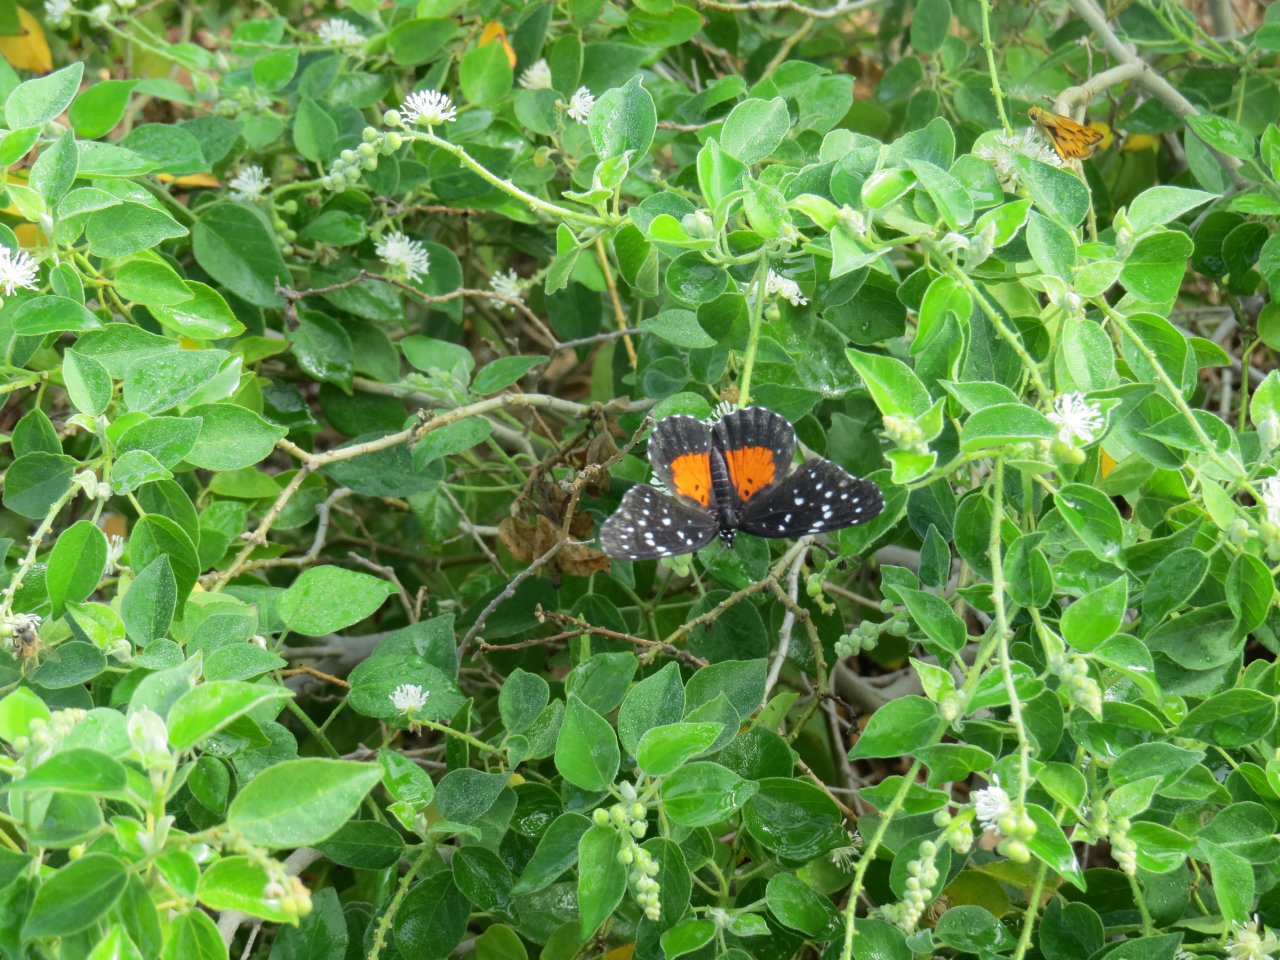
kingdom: Animalia
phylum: Arthropoda
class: Insecta
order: Lepidoptera
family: Nymphalidae
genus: Chlosyne
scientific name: Chlosyne janais
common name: Crimson Patch
